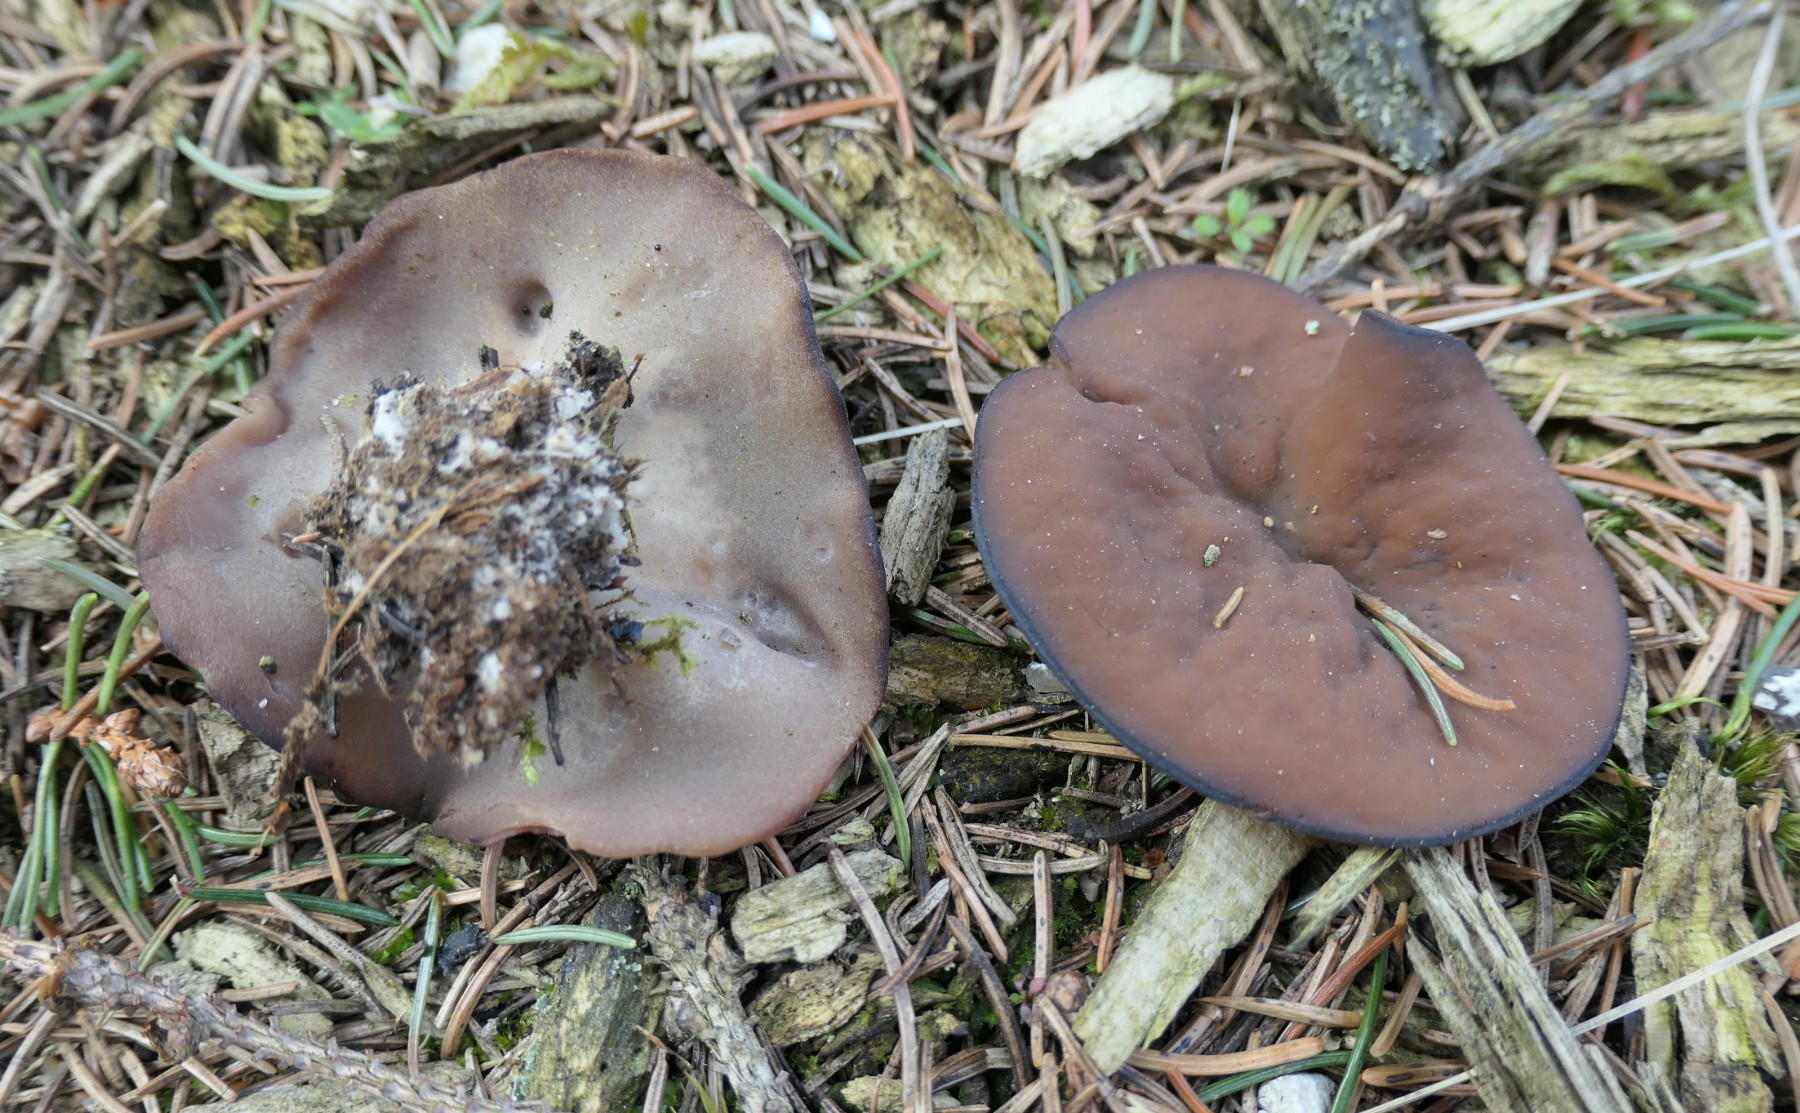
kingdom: Fungi
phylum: Ascomycota
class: Pezizomycetes
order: Pezizales
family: Discinaceae
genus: Discina
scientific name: Discina ancilis
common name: udbredt stenmorkel
